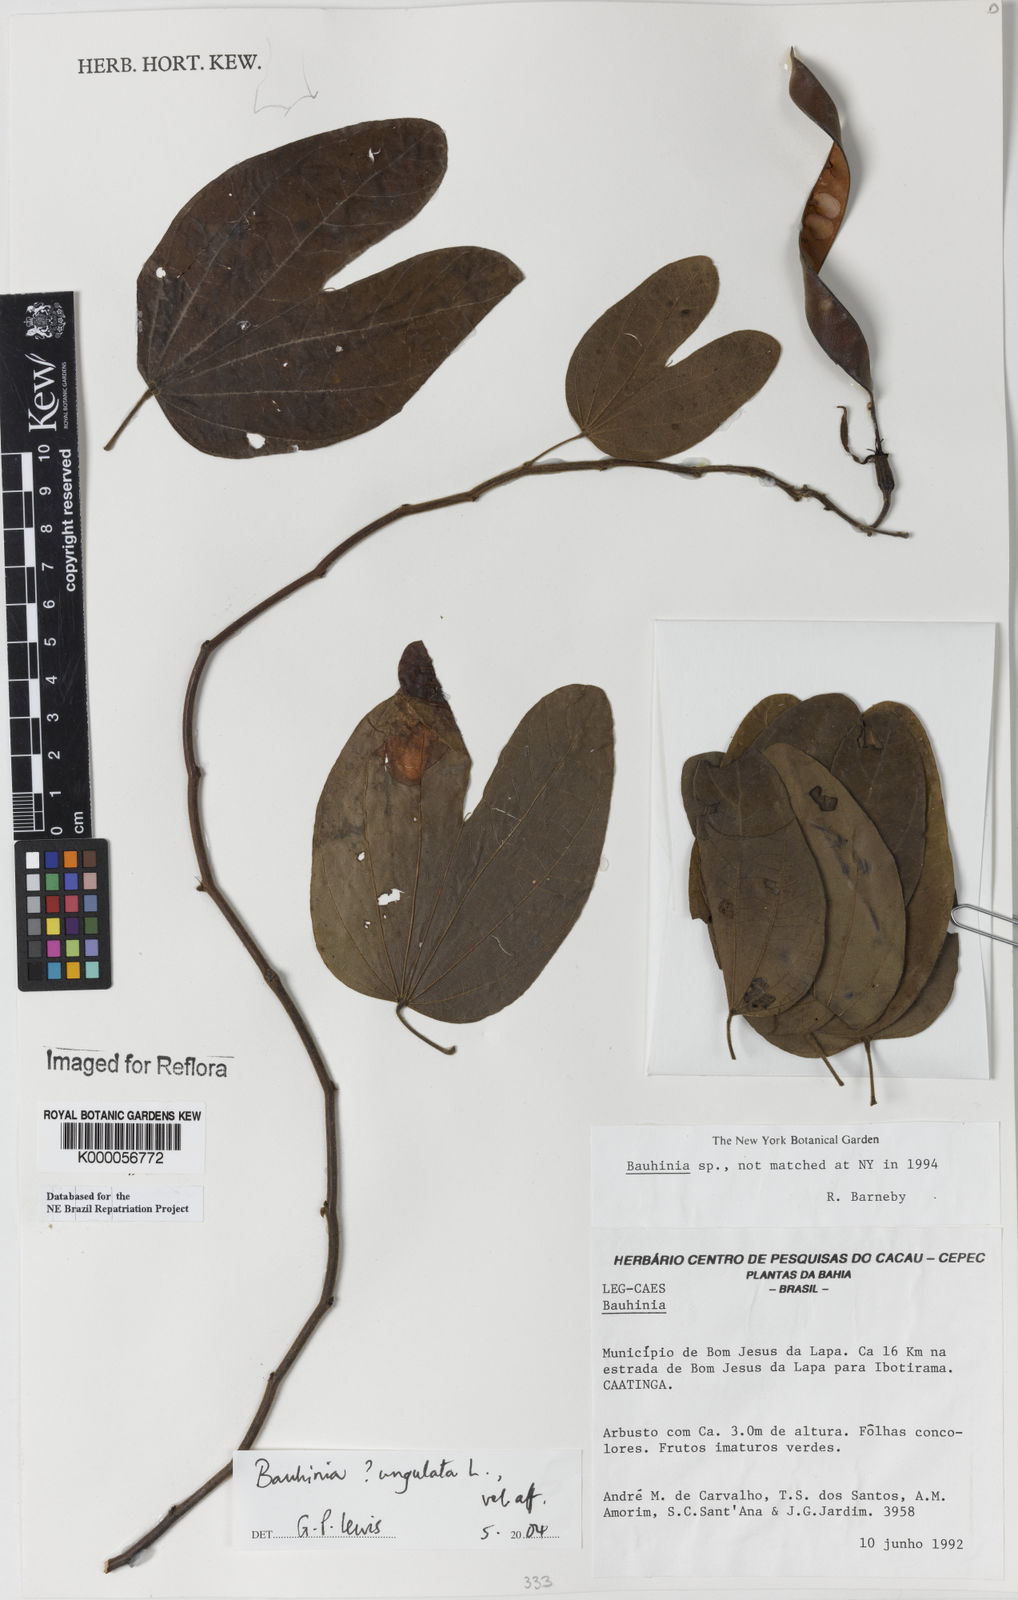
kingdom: Plantae
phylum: Tracheophyta
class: Magnoliopsida
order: Fabales
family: Fabaceae
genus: Bauhinia
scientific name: Bauhinia
